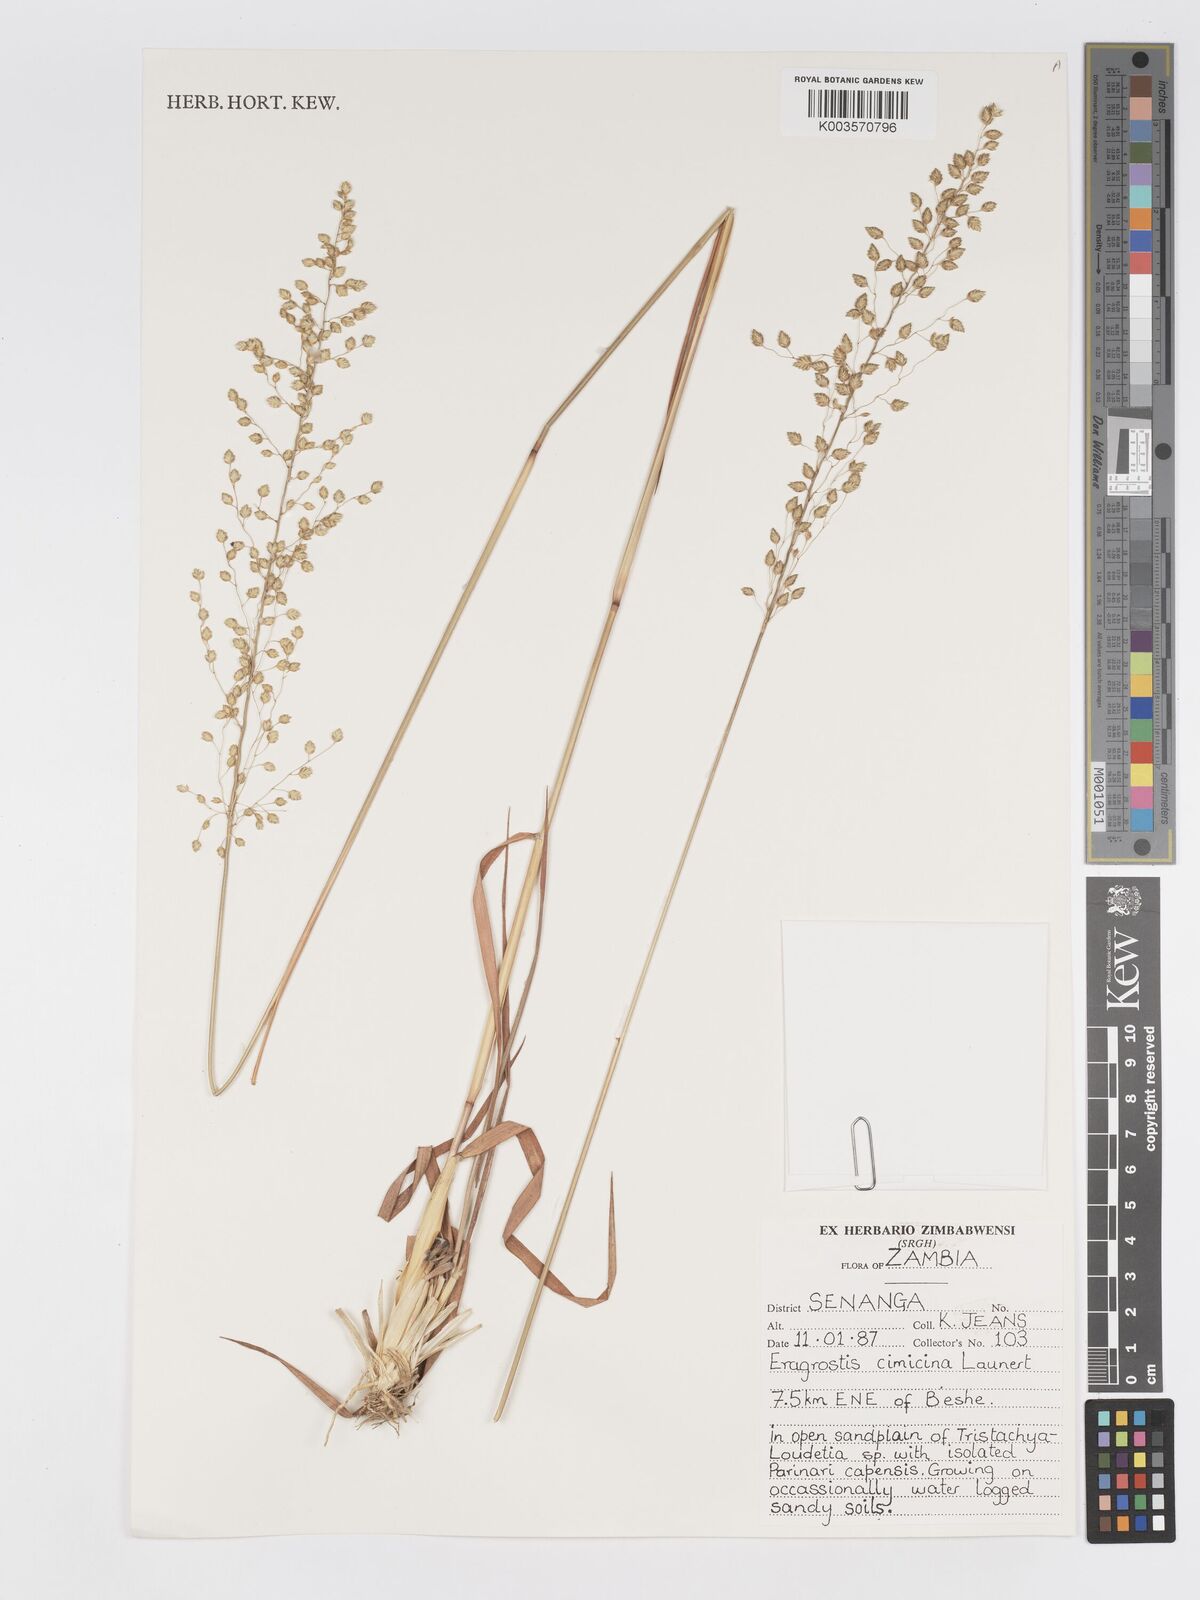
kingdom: Plantae
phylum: Tracheophyta
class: Liliopsida
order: Poales
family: Poaceae
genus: Eragrostis
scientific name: Eragrostis cimicina
